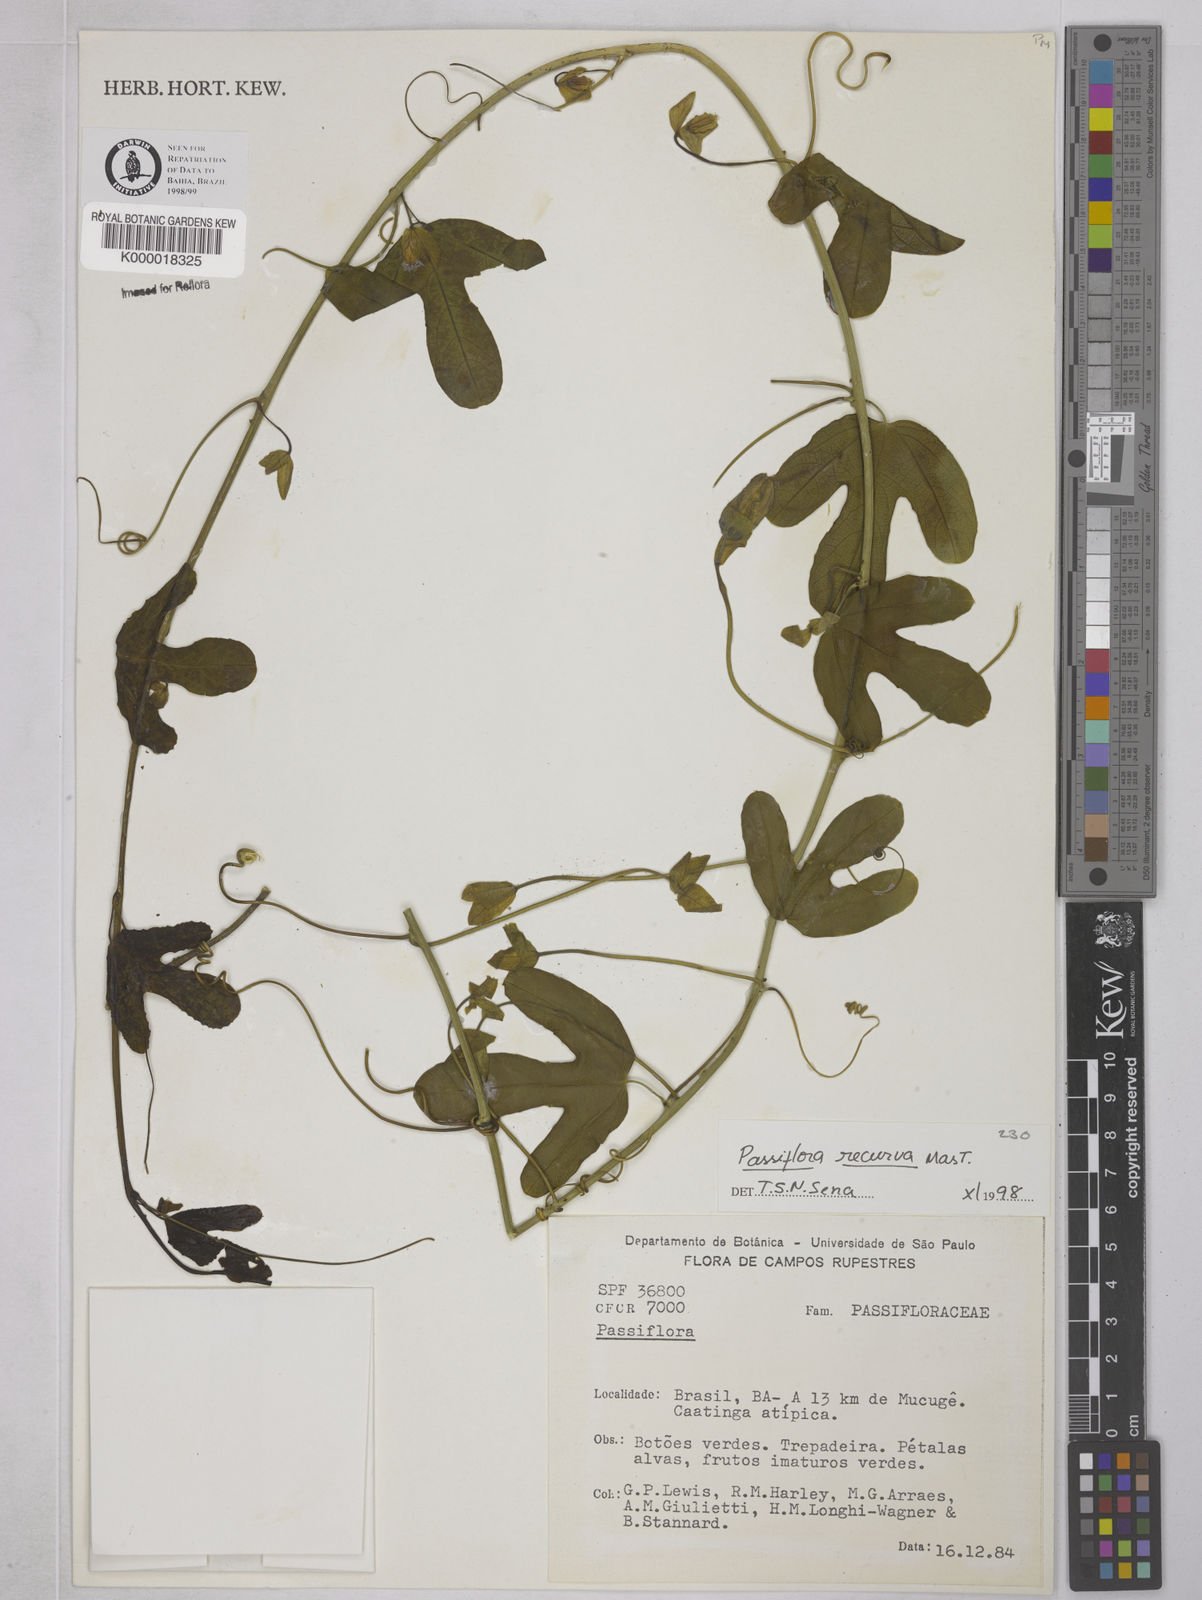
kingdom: Plantae
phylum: Tracheophyta
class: Magnoliopsida
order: Malpighiales
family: Passifloraceae
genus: Passiflora
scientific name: Passiflora recurva
